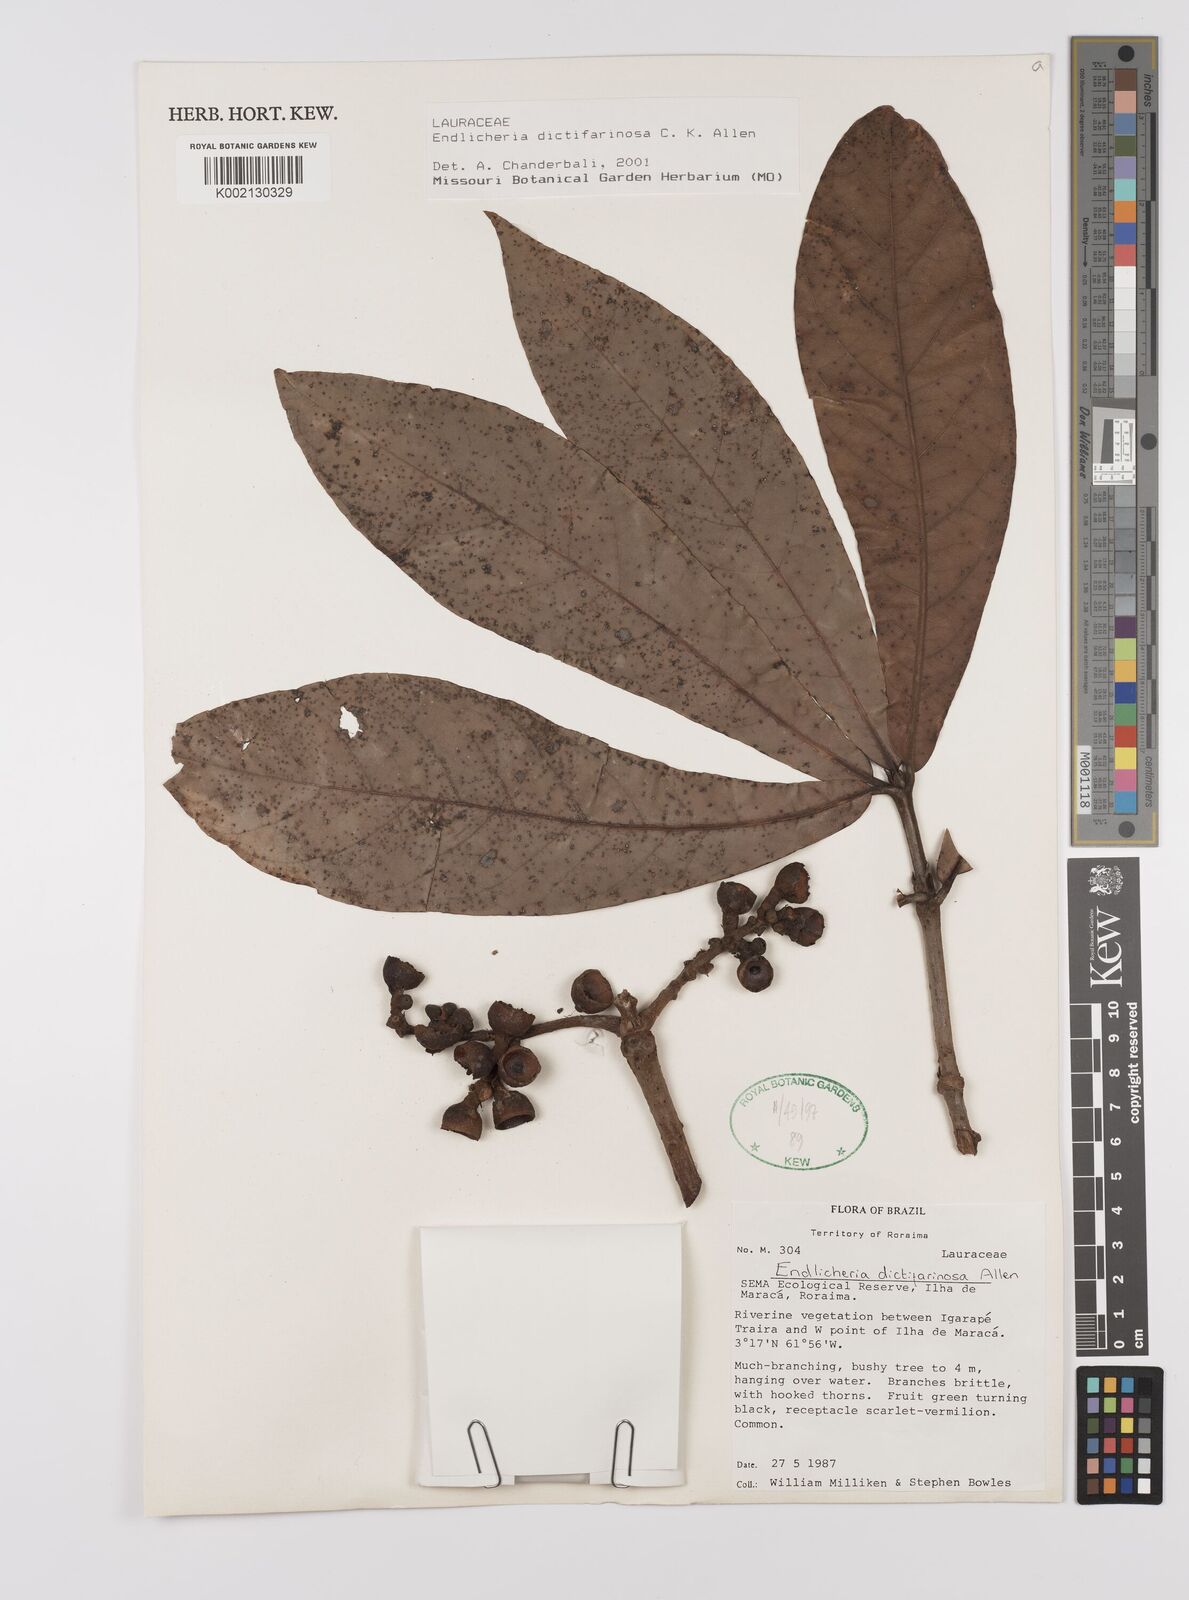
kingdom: Plantae
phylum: Tracheophyta
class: Magnoliopsida
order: Laurales
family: Lauraceae
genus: Endlicheria
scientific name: Endlicheria dictifarinosa
